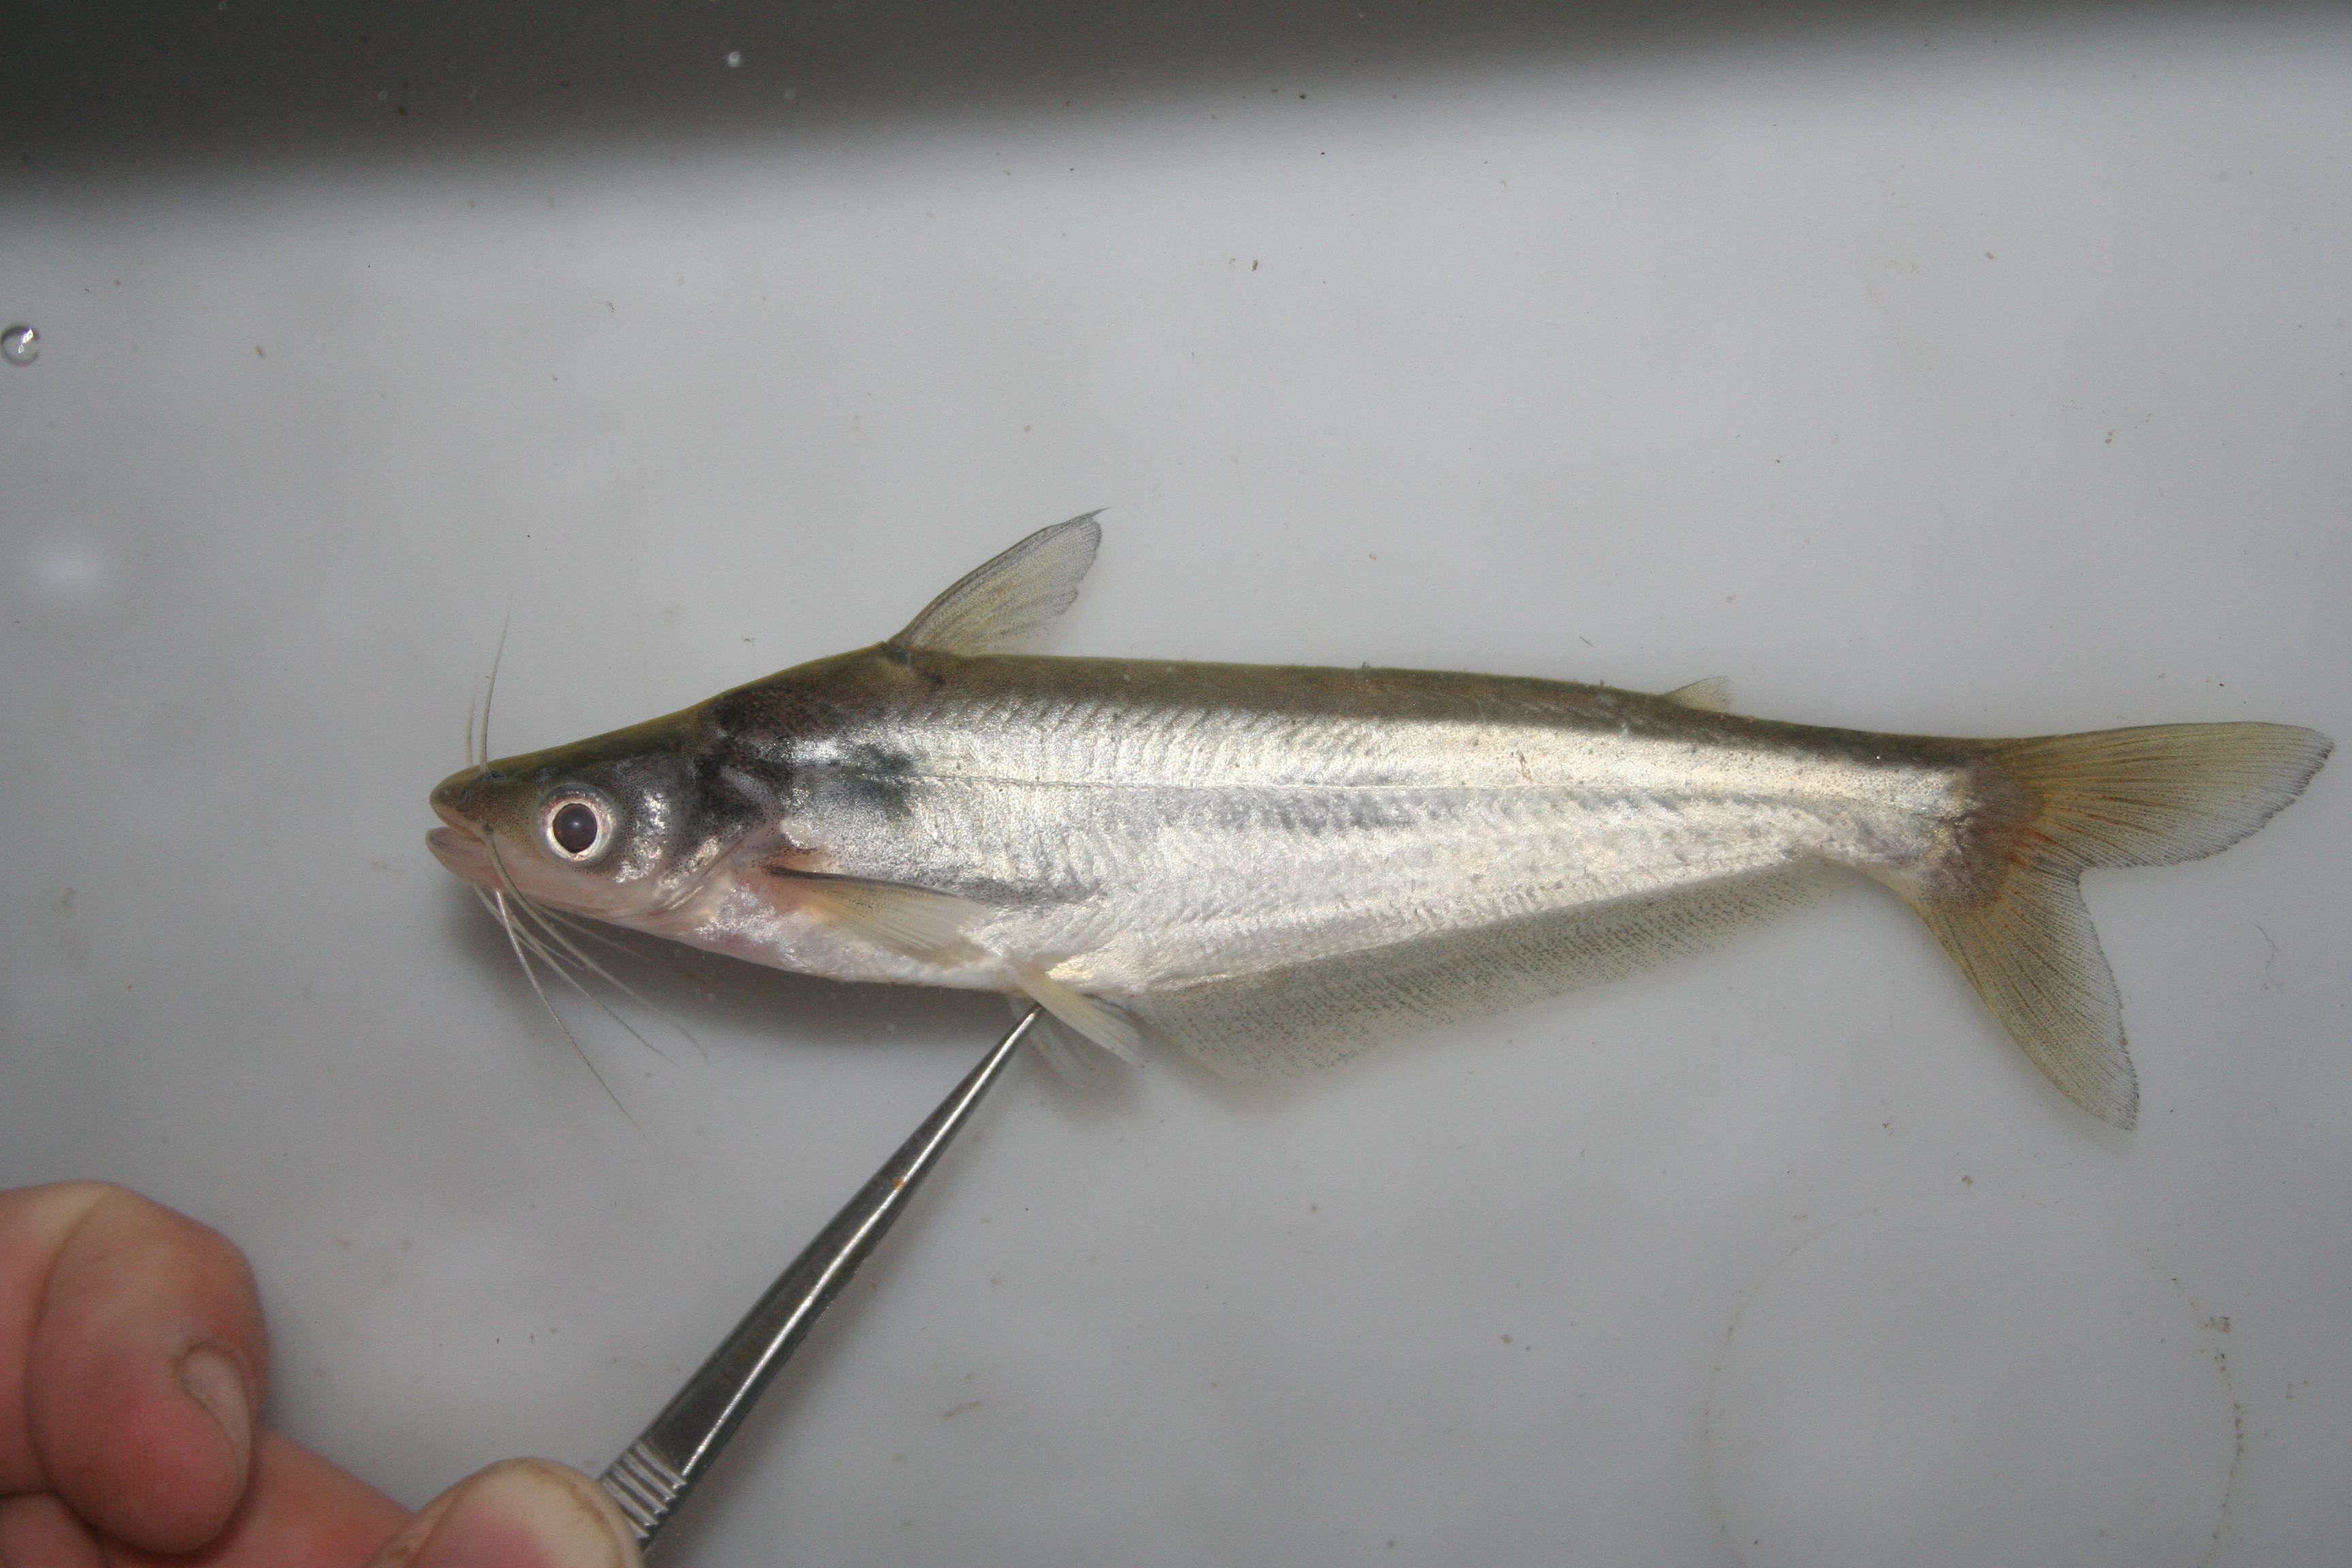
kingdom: Animalia
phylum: Chordata
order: Siluriformes
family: Schilbeidae
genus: Schilbe
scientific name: Schilbe bocagii
